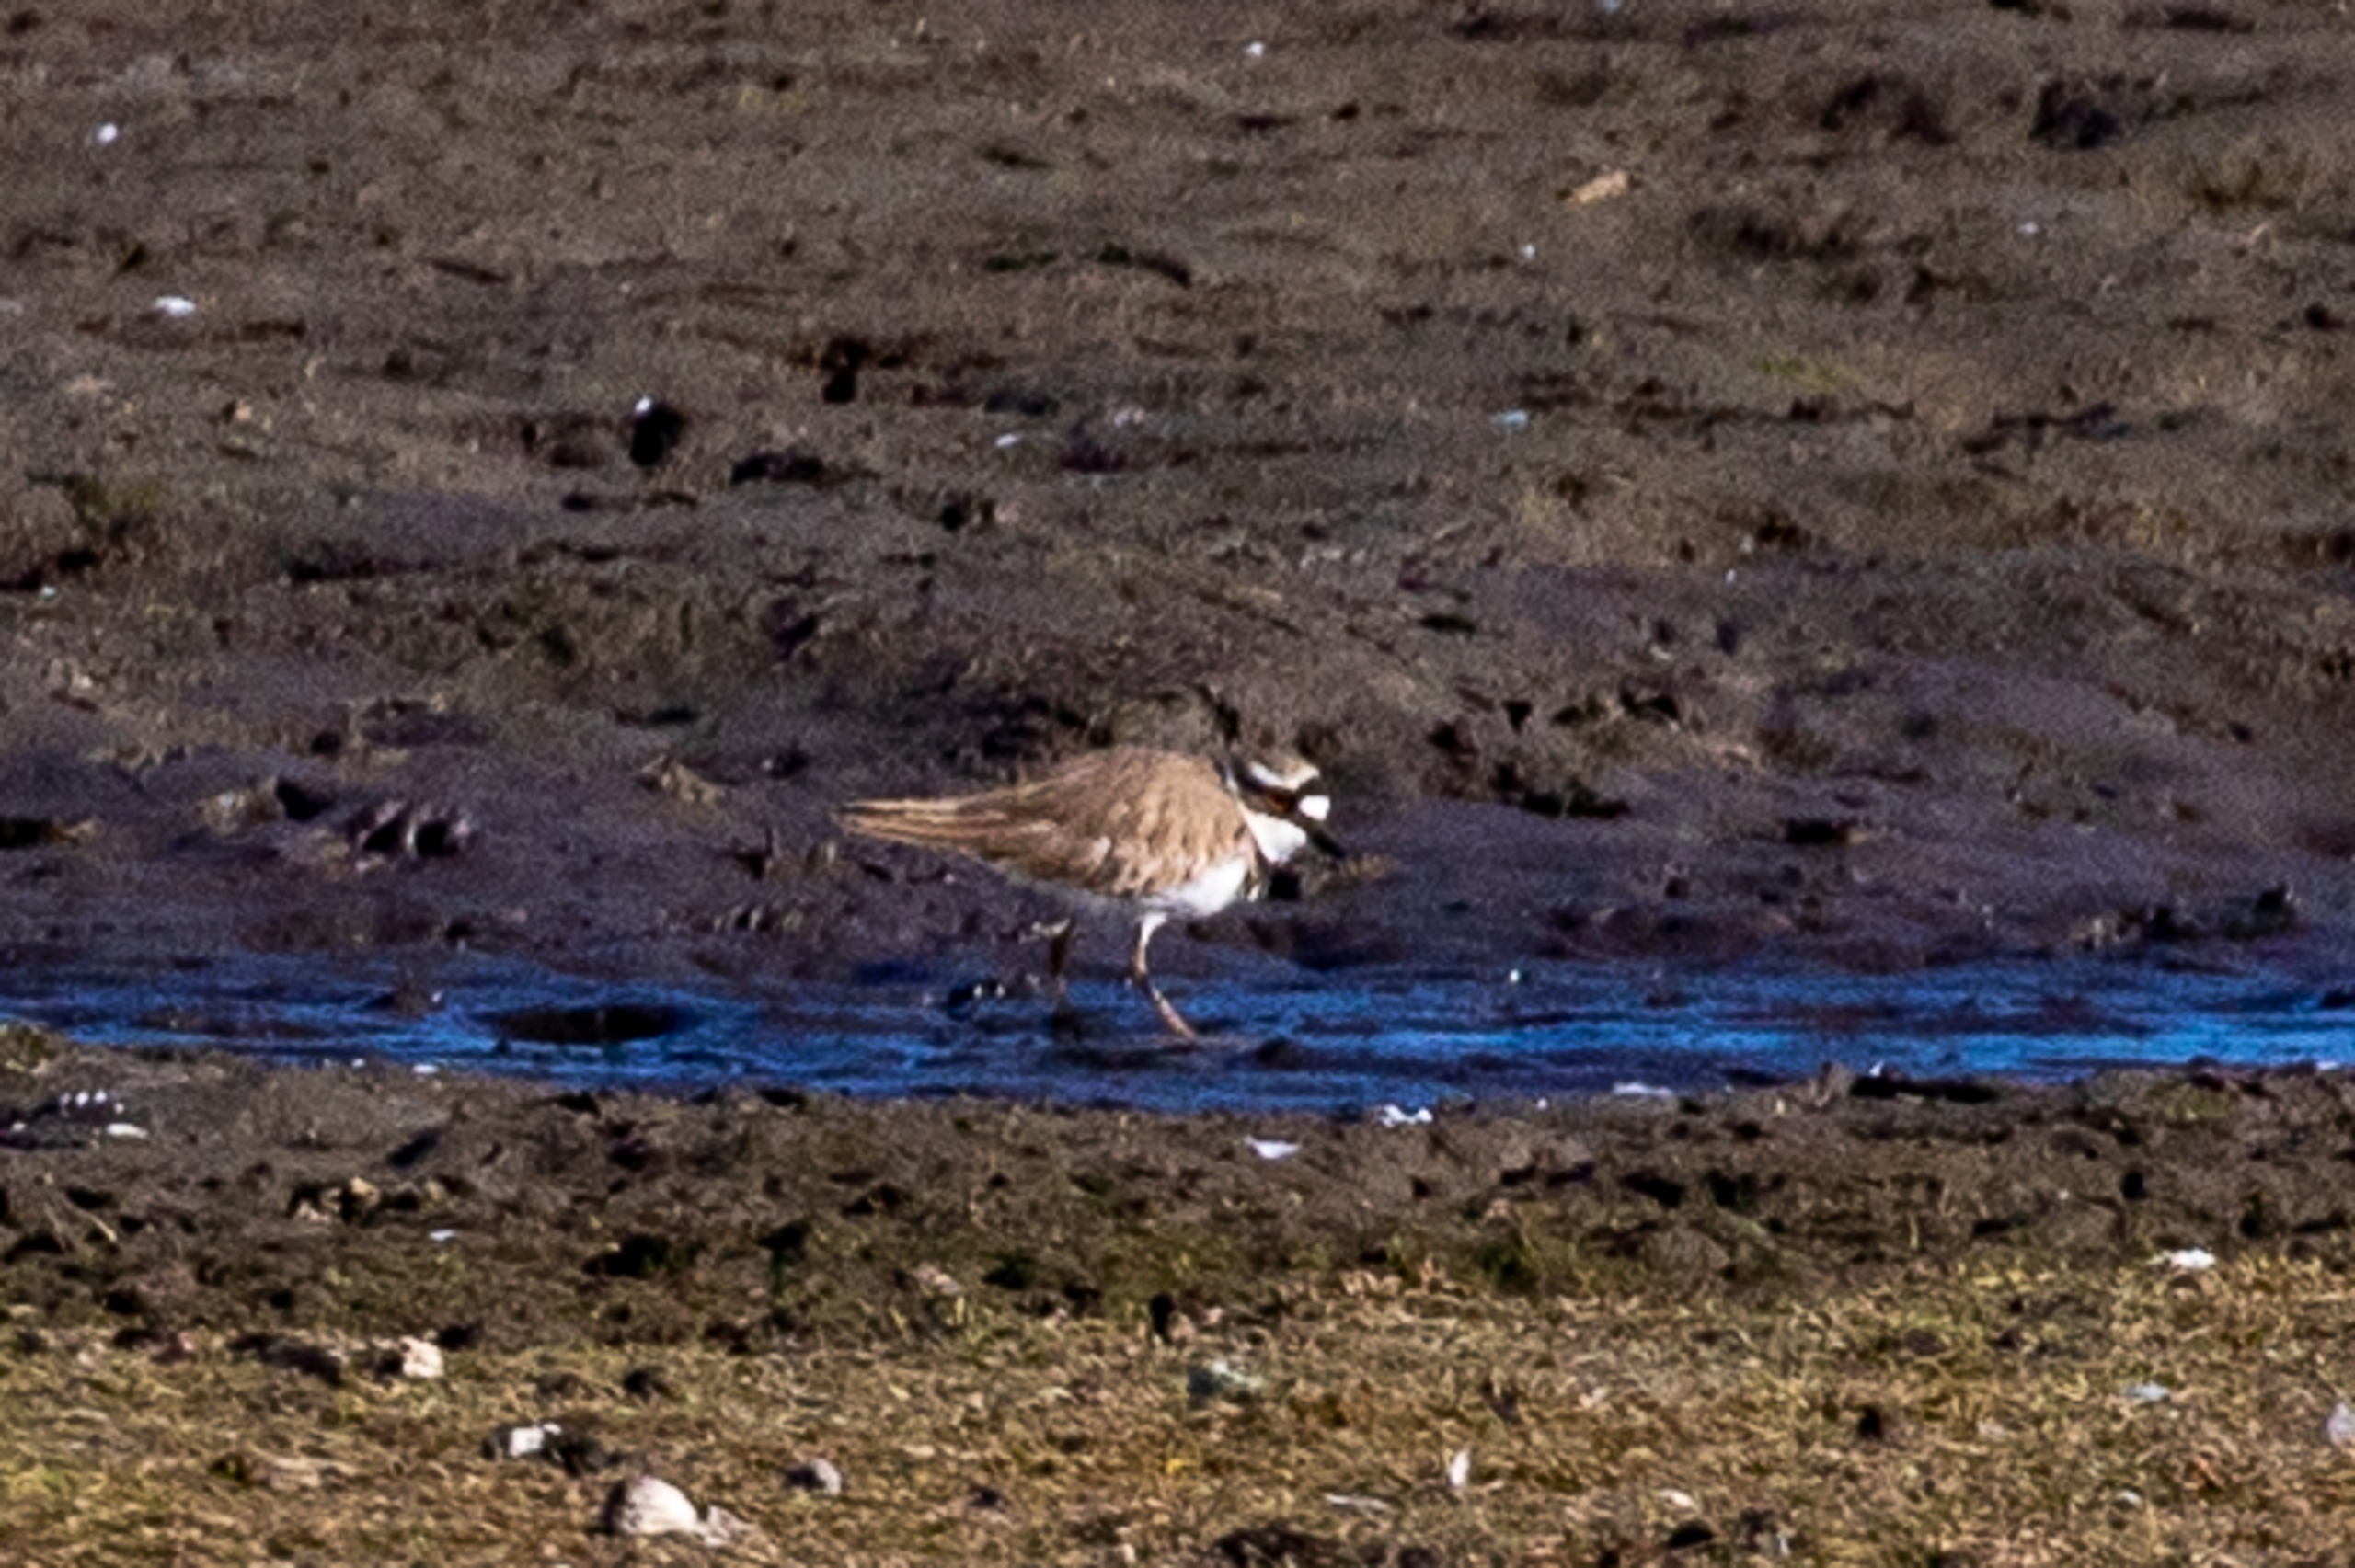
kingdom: Animalia
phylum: Chordata
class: Aves
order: Charadriiformes
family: Charadriidae
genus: Charadrius
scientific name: Charadrius dubius
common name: Lille præstekrave
